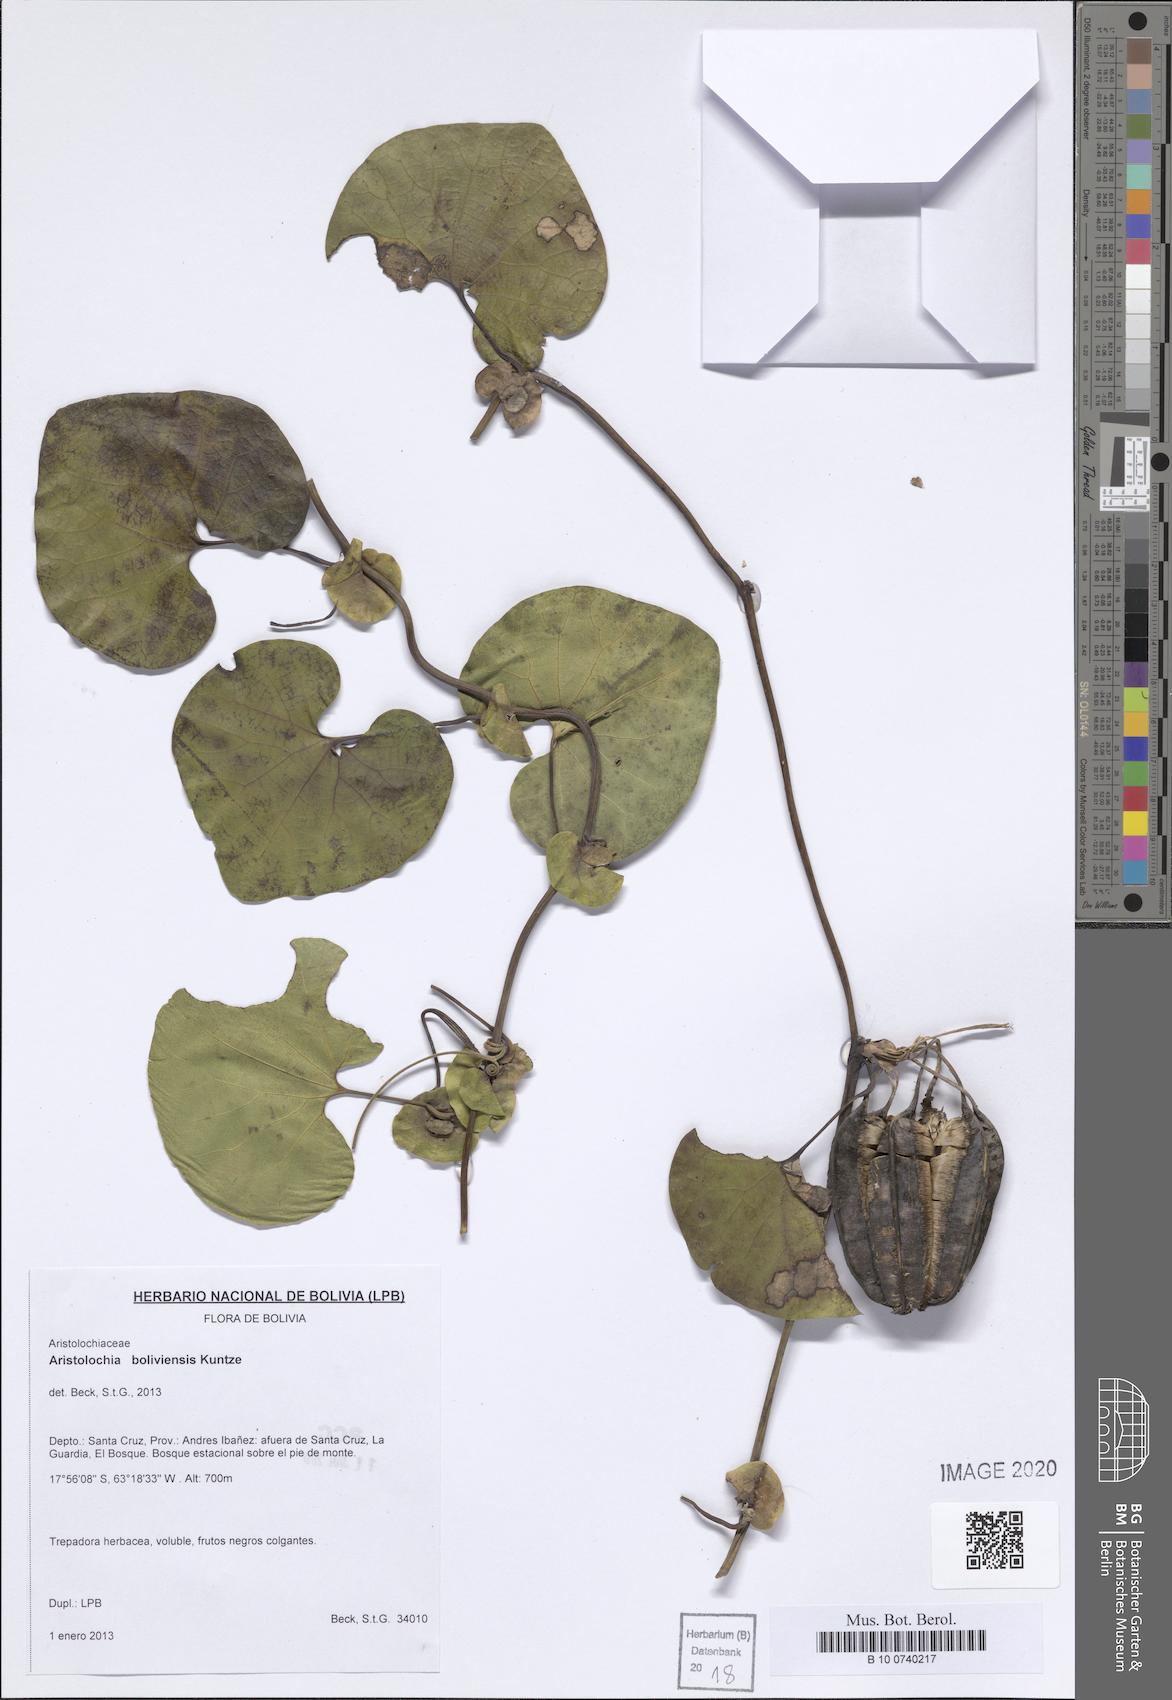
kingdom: Plantae
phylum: Tracheophyta
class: Magnoliopsida
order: Piperales
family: Aristolochiaceae
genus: Aristolochia
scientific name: Aristolochia boliviensis
